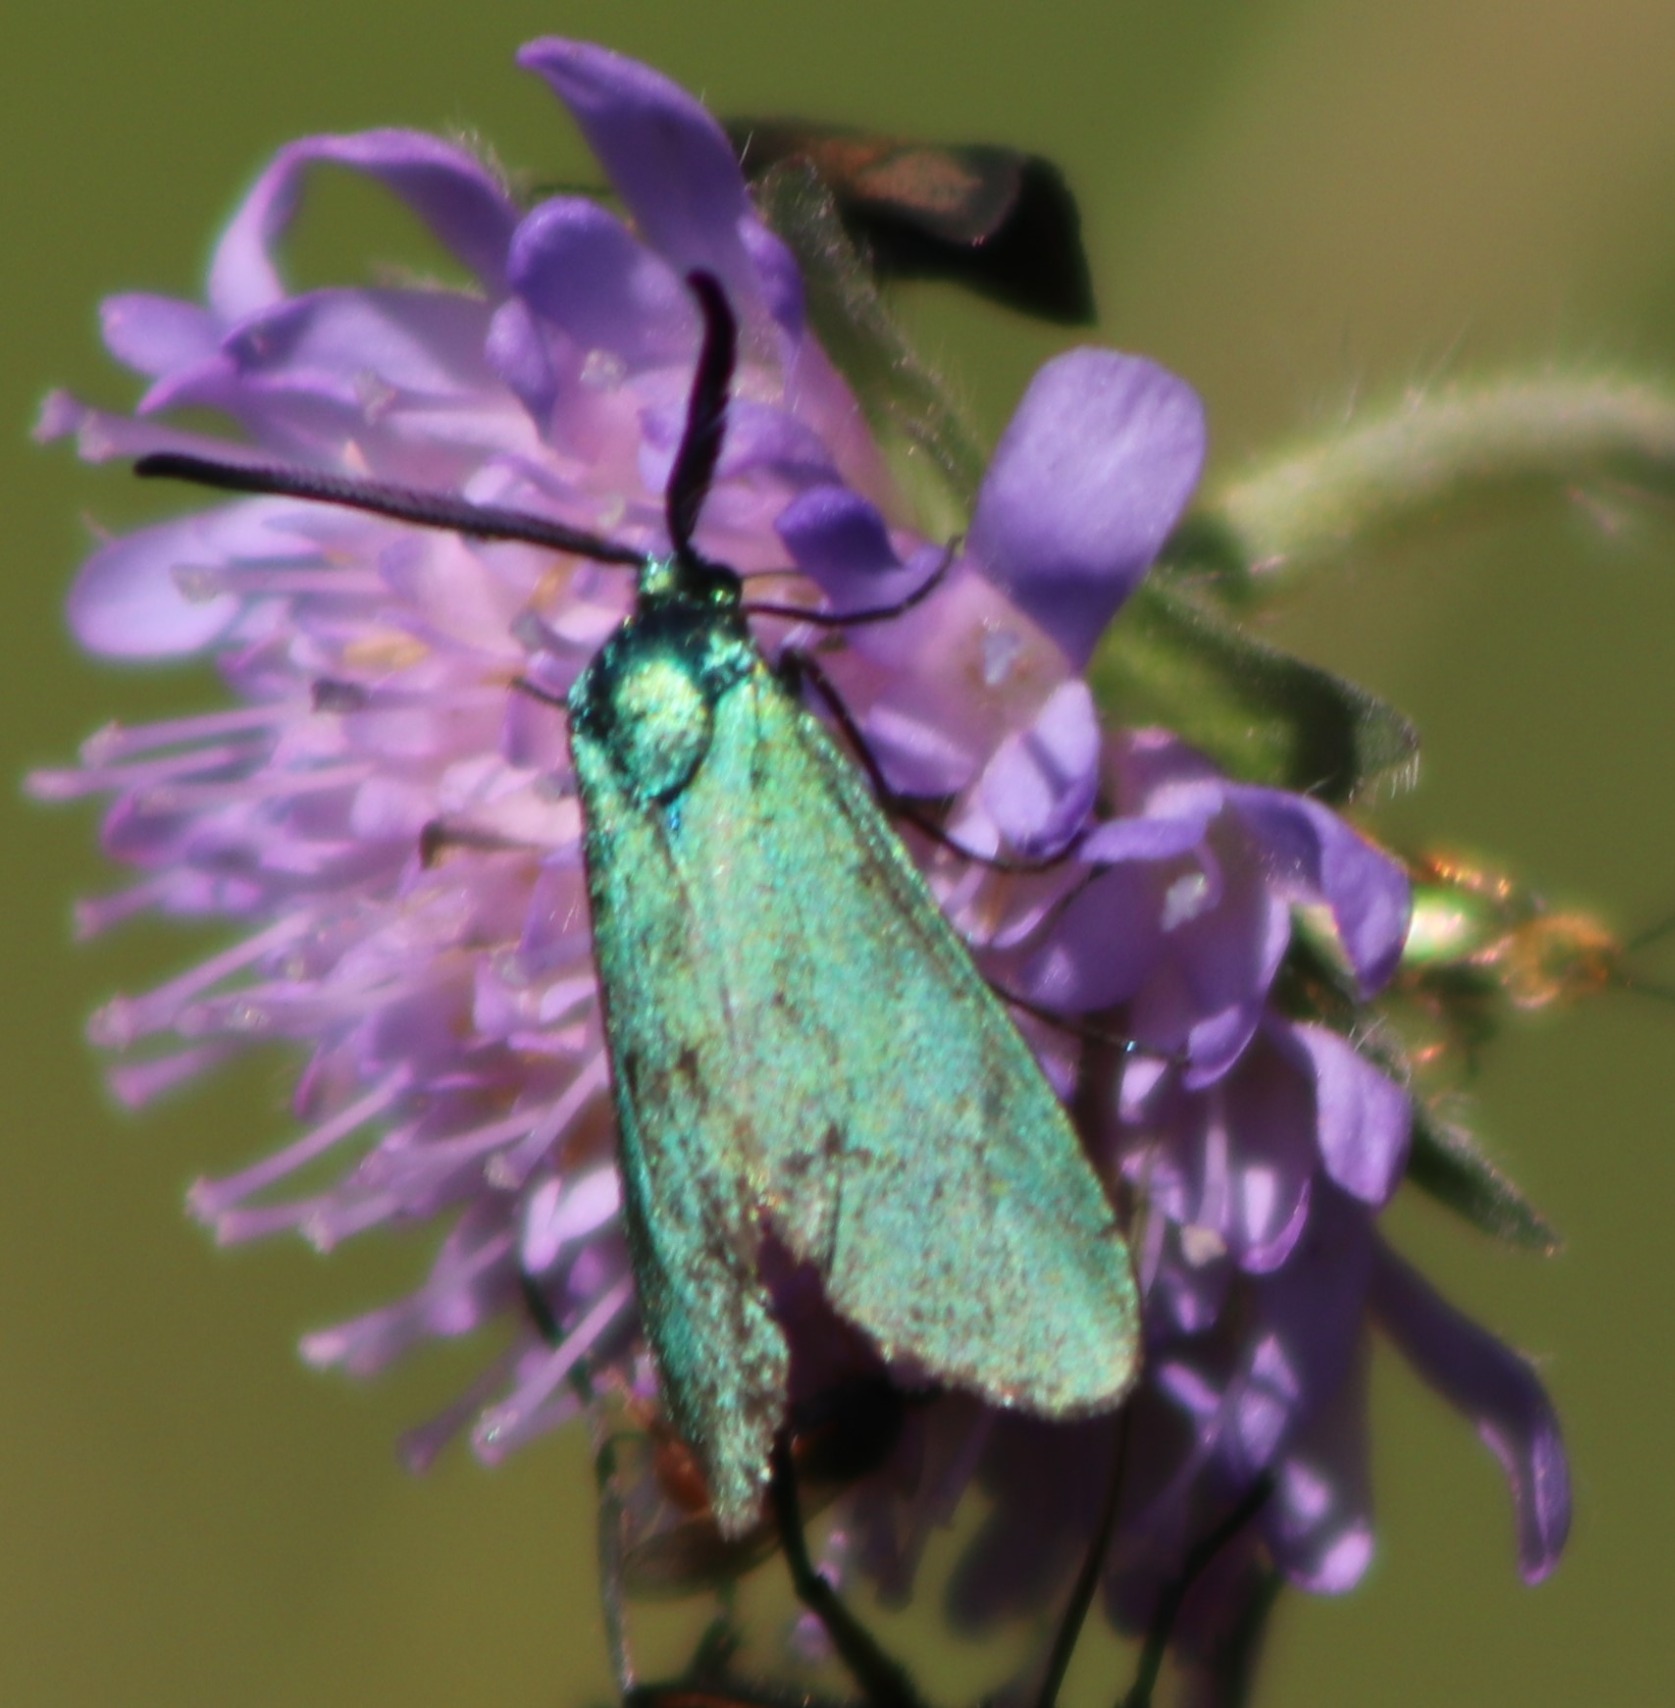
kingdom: Animalia
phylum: Arthropoda
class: Insecta
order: Lepidoptera
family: Zygaenidae
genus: Adscita
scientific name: Adscita statices
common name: Metalvinge
